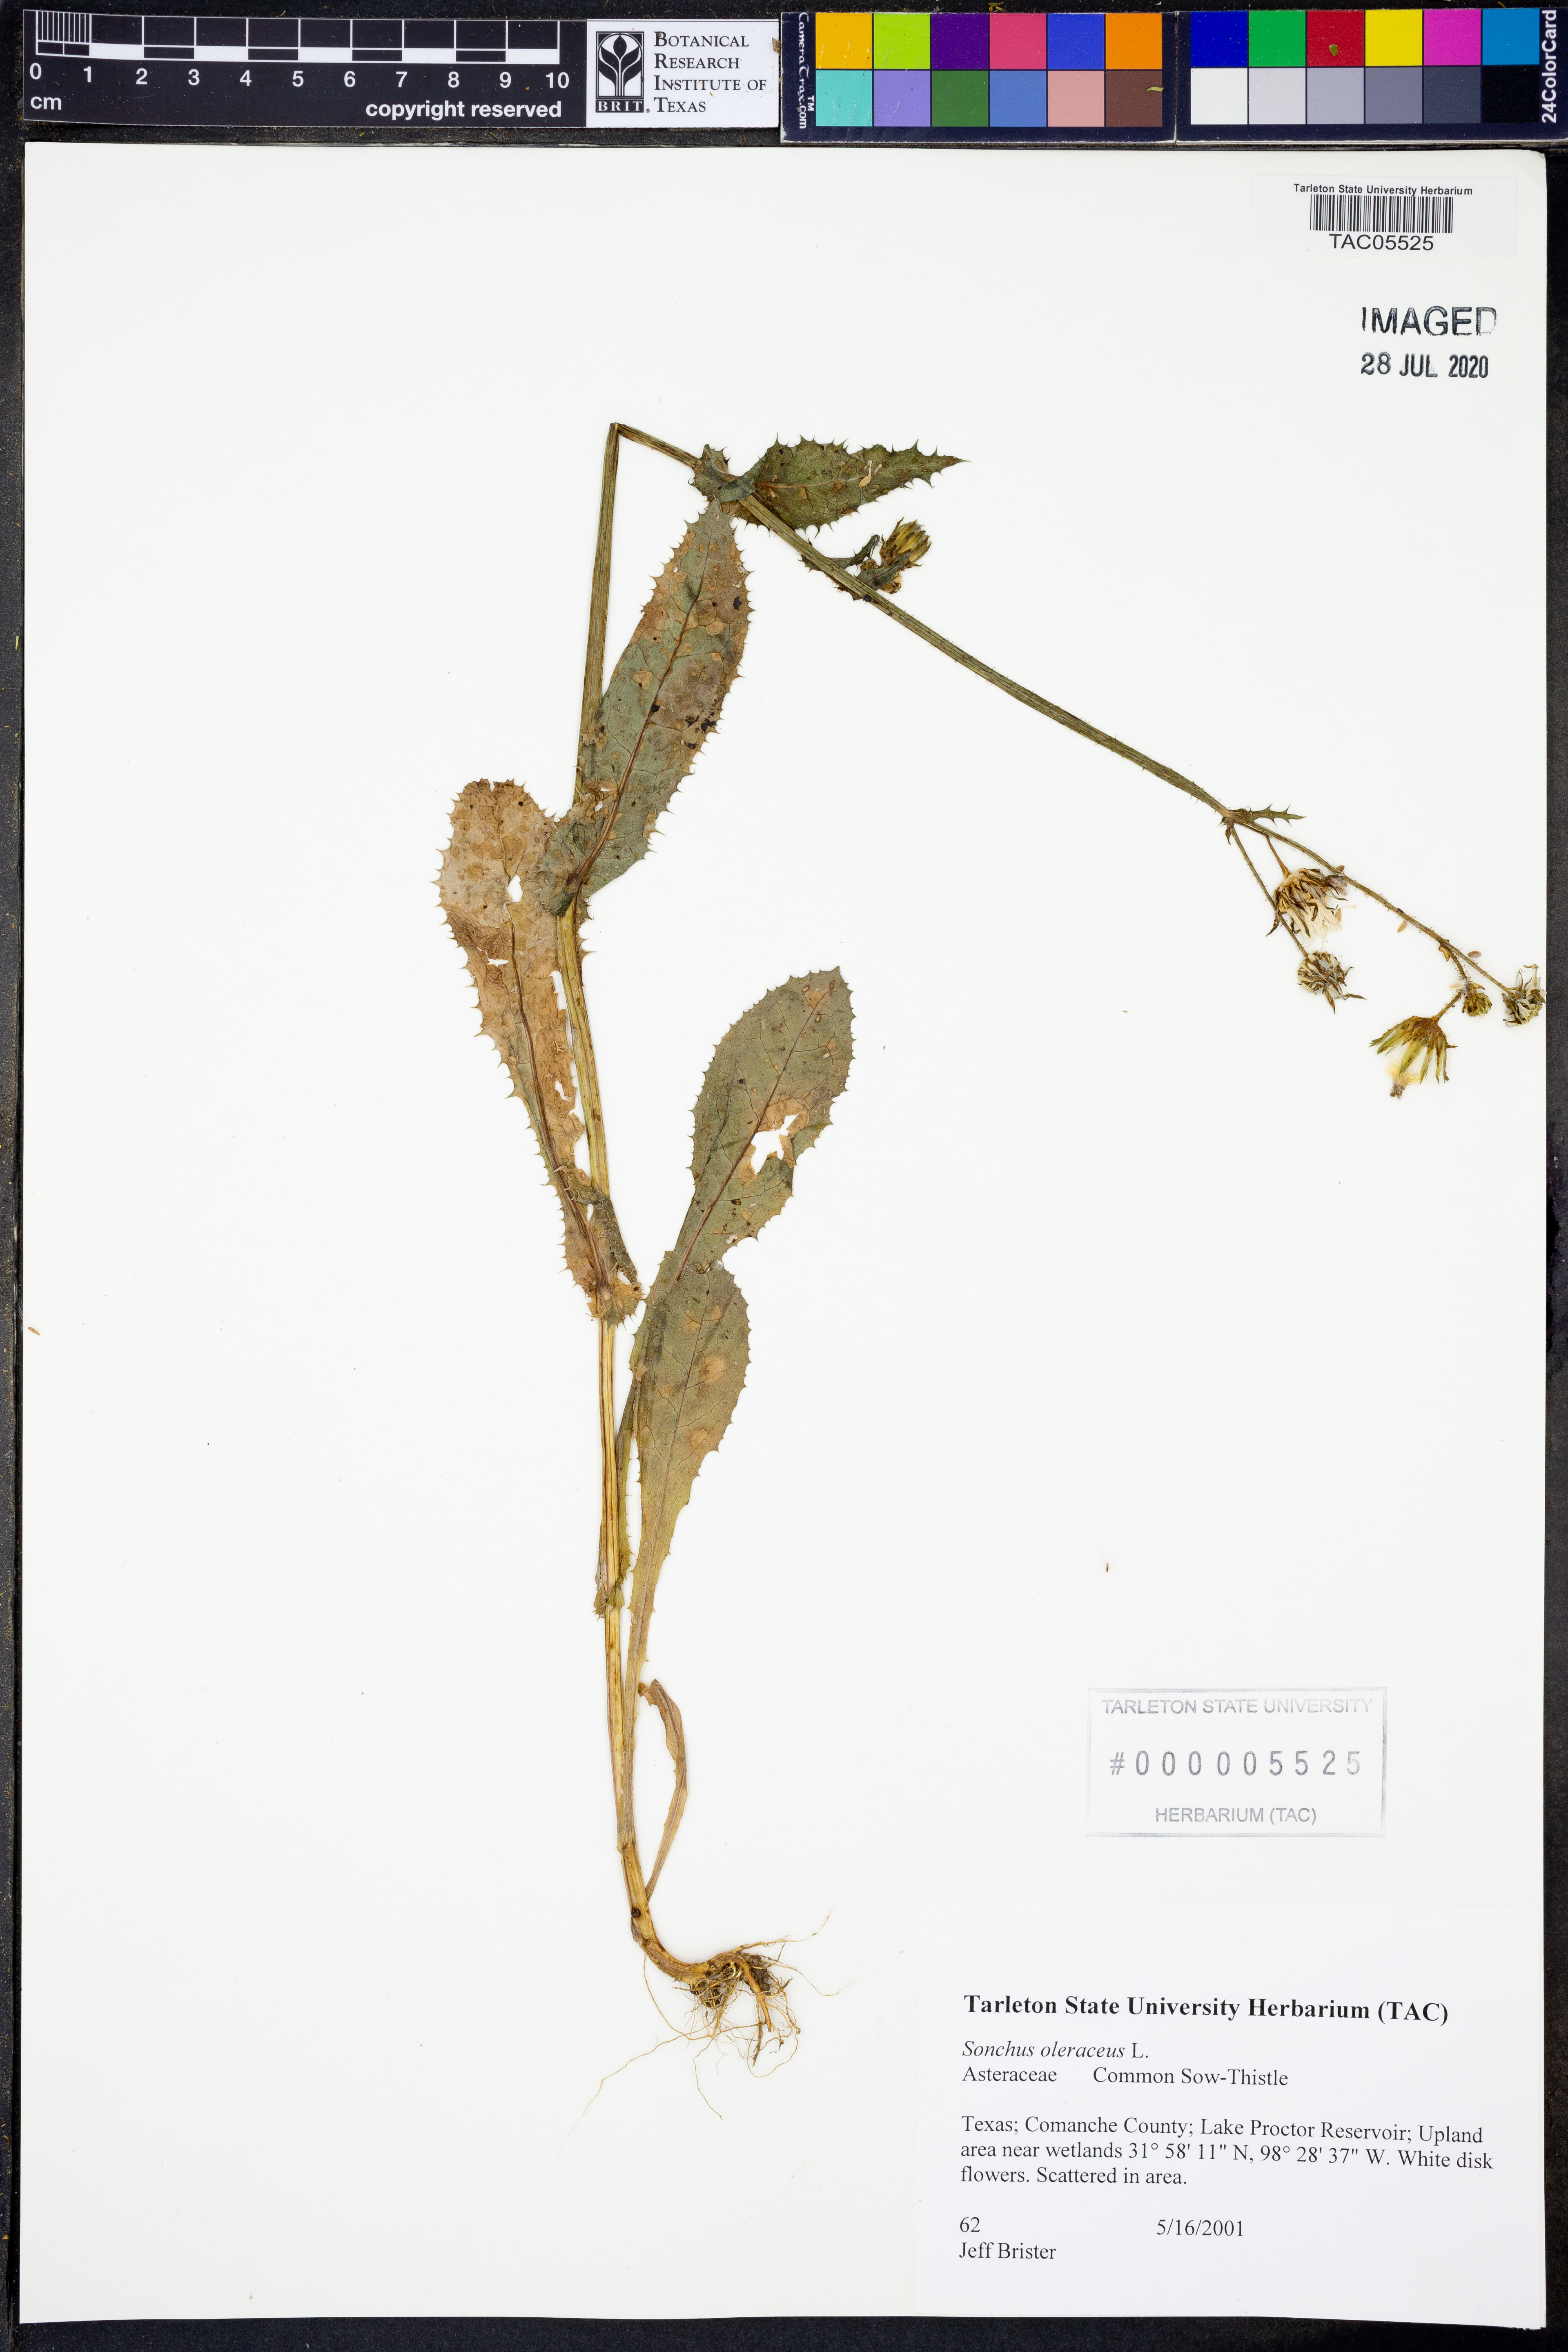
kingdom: Plantae
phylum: Tracheophyta
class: Magnoliopsida
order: Asterales
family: Asteraceae
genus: Sonchus
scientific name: Sonchus oleraceus
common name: Common sowthistle
